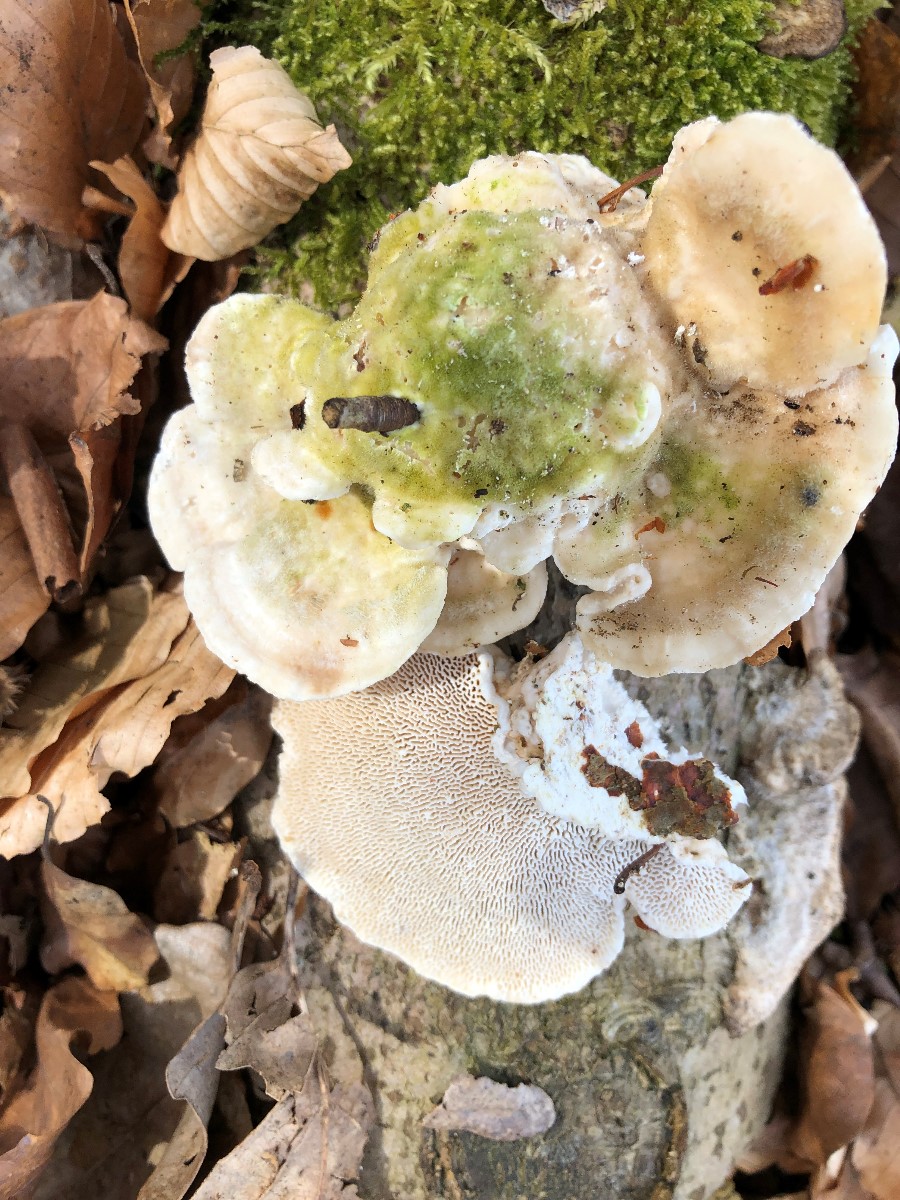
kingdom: Fungi
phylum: Basidiomycota
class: Agaricomycetes
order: Polyporales
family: Polyporaceae
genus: Trametes
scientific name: Trametes gibbosa
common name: puklet læderporesvamp
